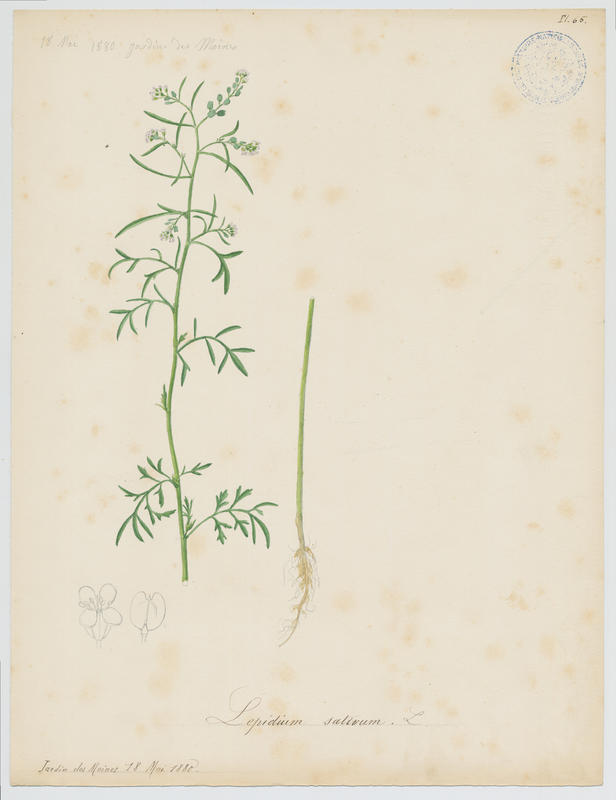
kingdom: Plantae
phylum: Tracheophyta
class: Magnoliopsida
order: Brassicales
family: Brassicaceae
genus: Lepidium
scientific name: Lepidium sativum
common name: Garden cress
